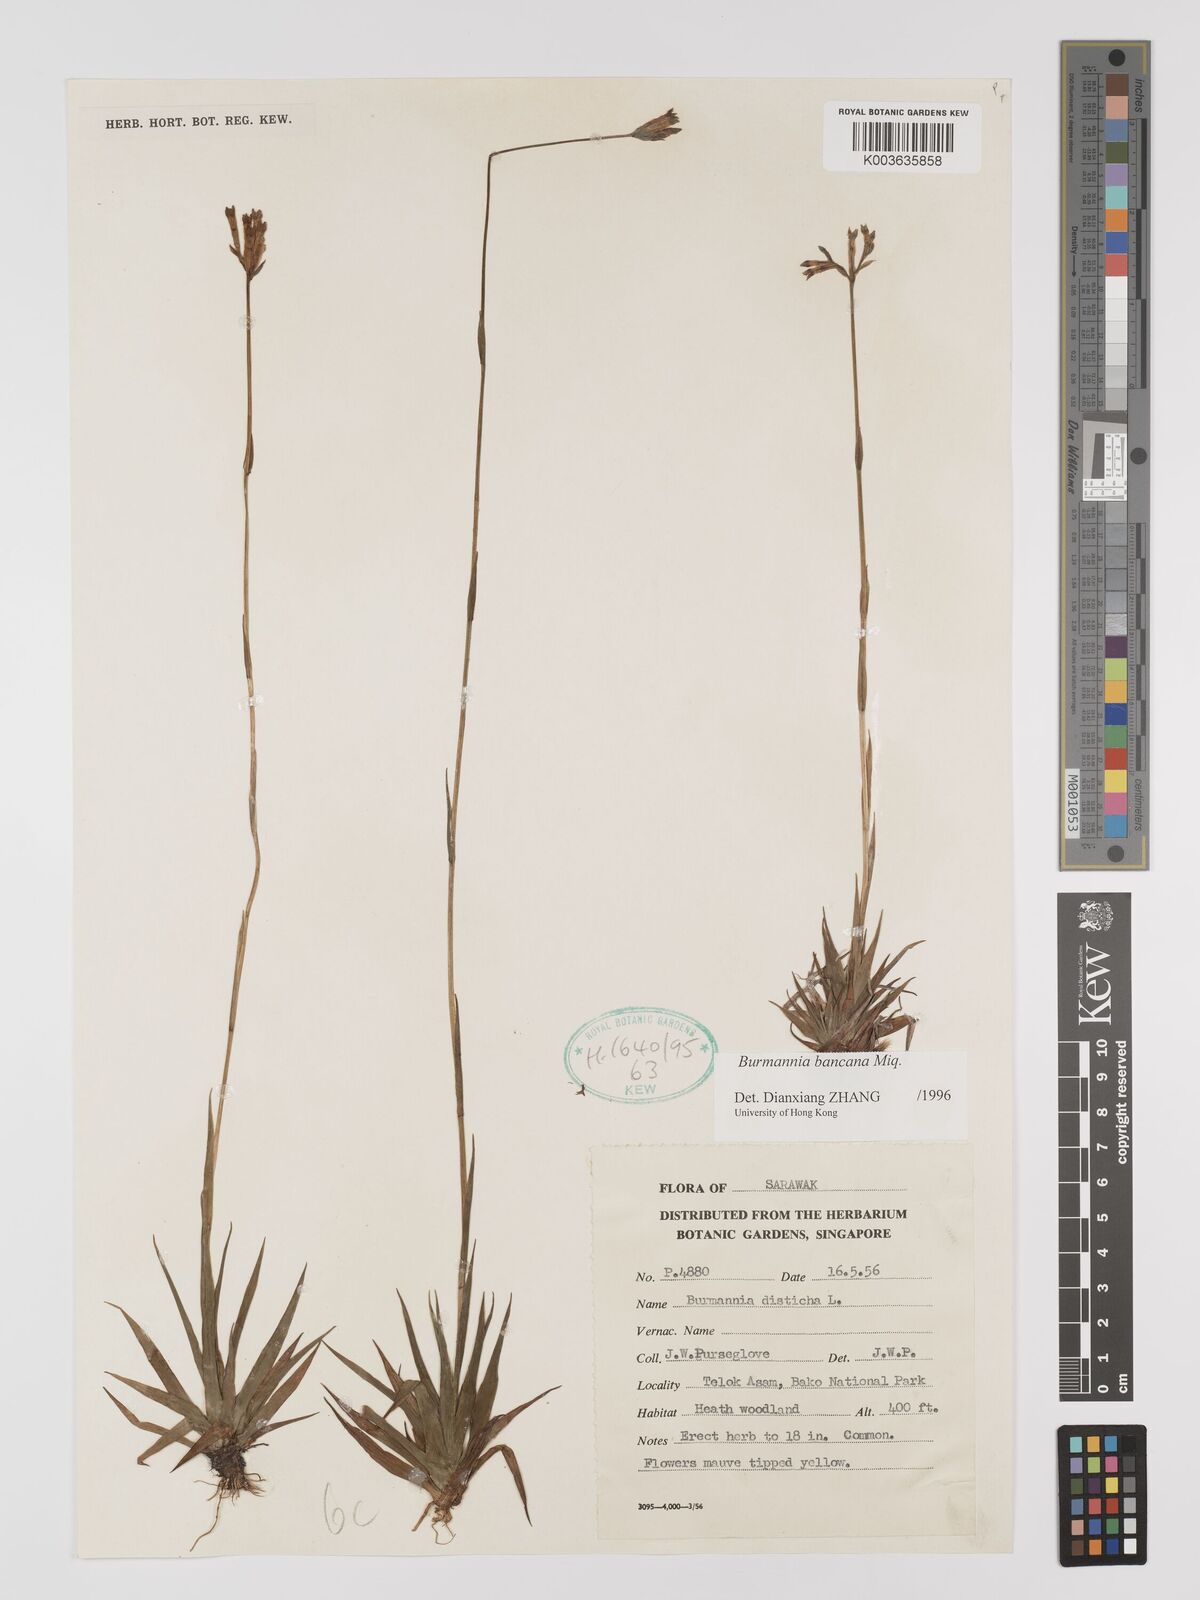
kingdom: Plantae
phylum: Tracheophyta
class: Liliopsida
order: Dioscoreales
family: Burmanniaceae
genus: Burmannia
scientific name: Burmannia disticha
